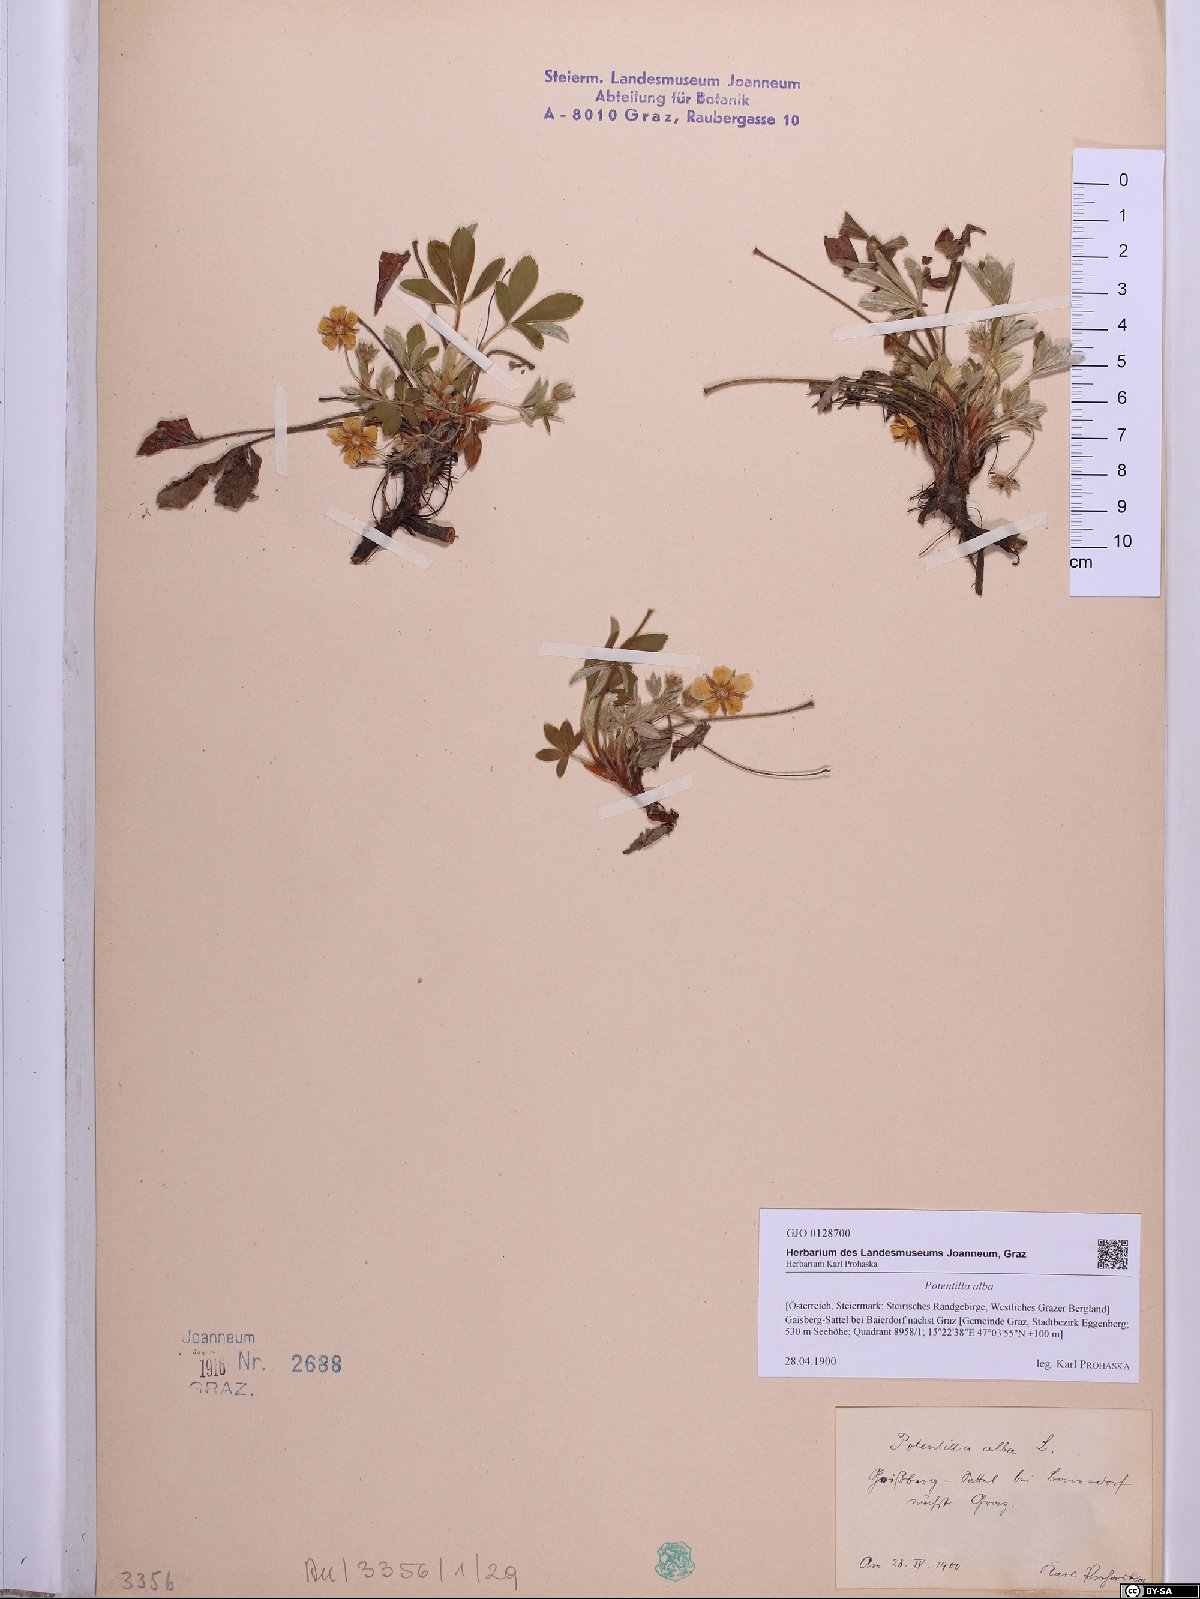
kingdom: Plantae
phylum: Tracheophyta
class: Magnoliopsida
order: Rosales
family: Rosaceae
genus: Potentilla
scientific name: Potentilla alba
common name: White cinquefoil
